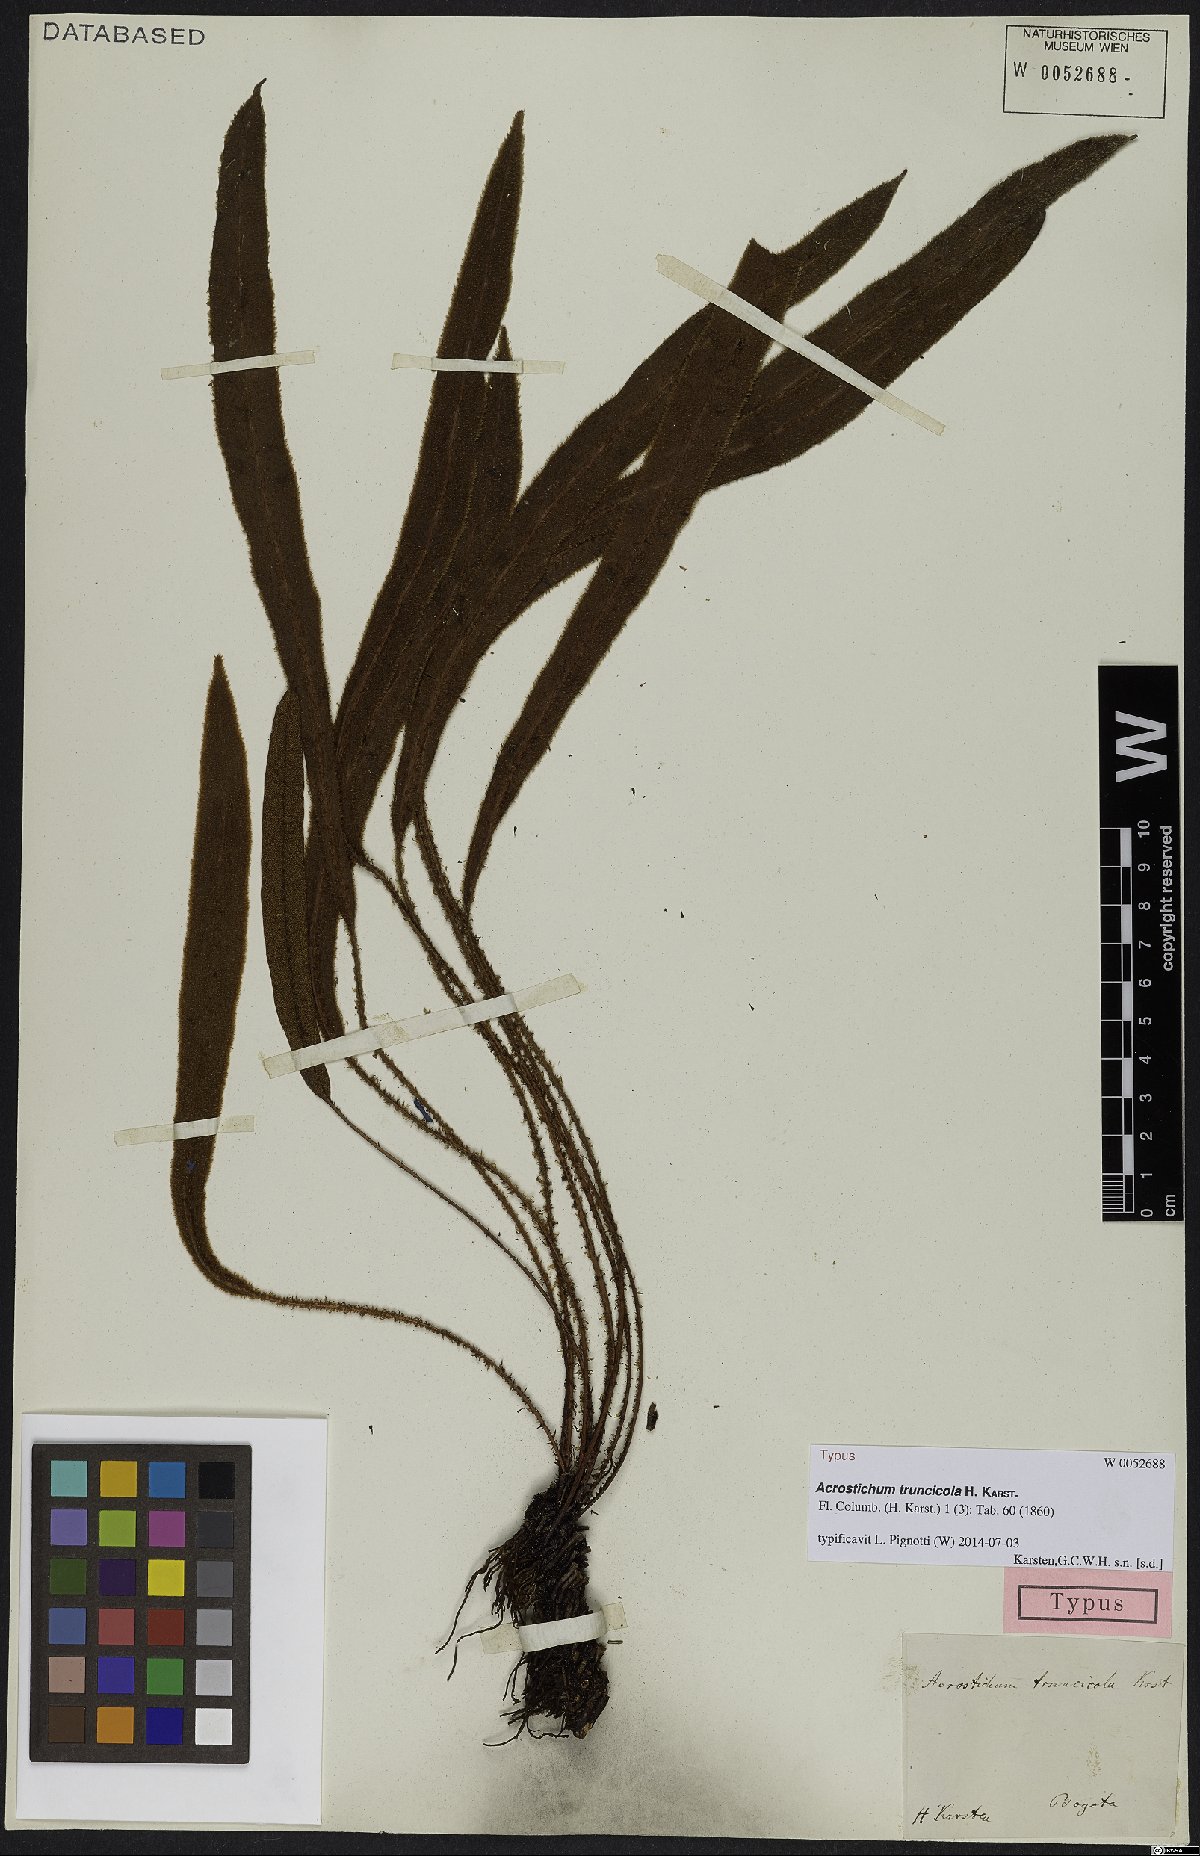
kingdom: Plantae
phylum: Tracheophyta
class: Polypodiopsida
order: Polypodiales
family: Dryopteridaceae
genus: Elaphoglossum
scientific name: Elaphoglossum truncicola
